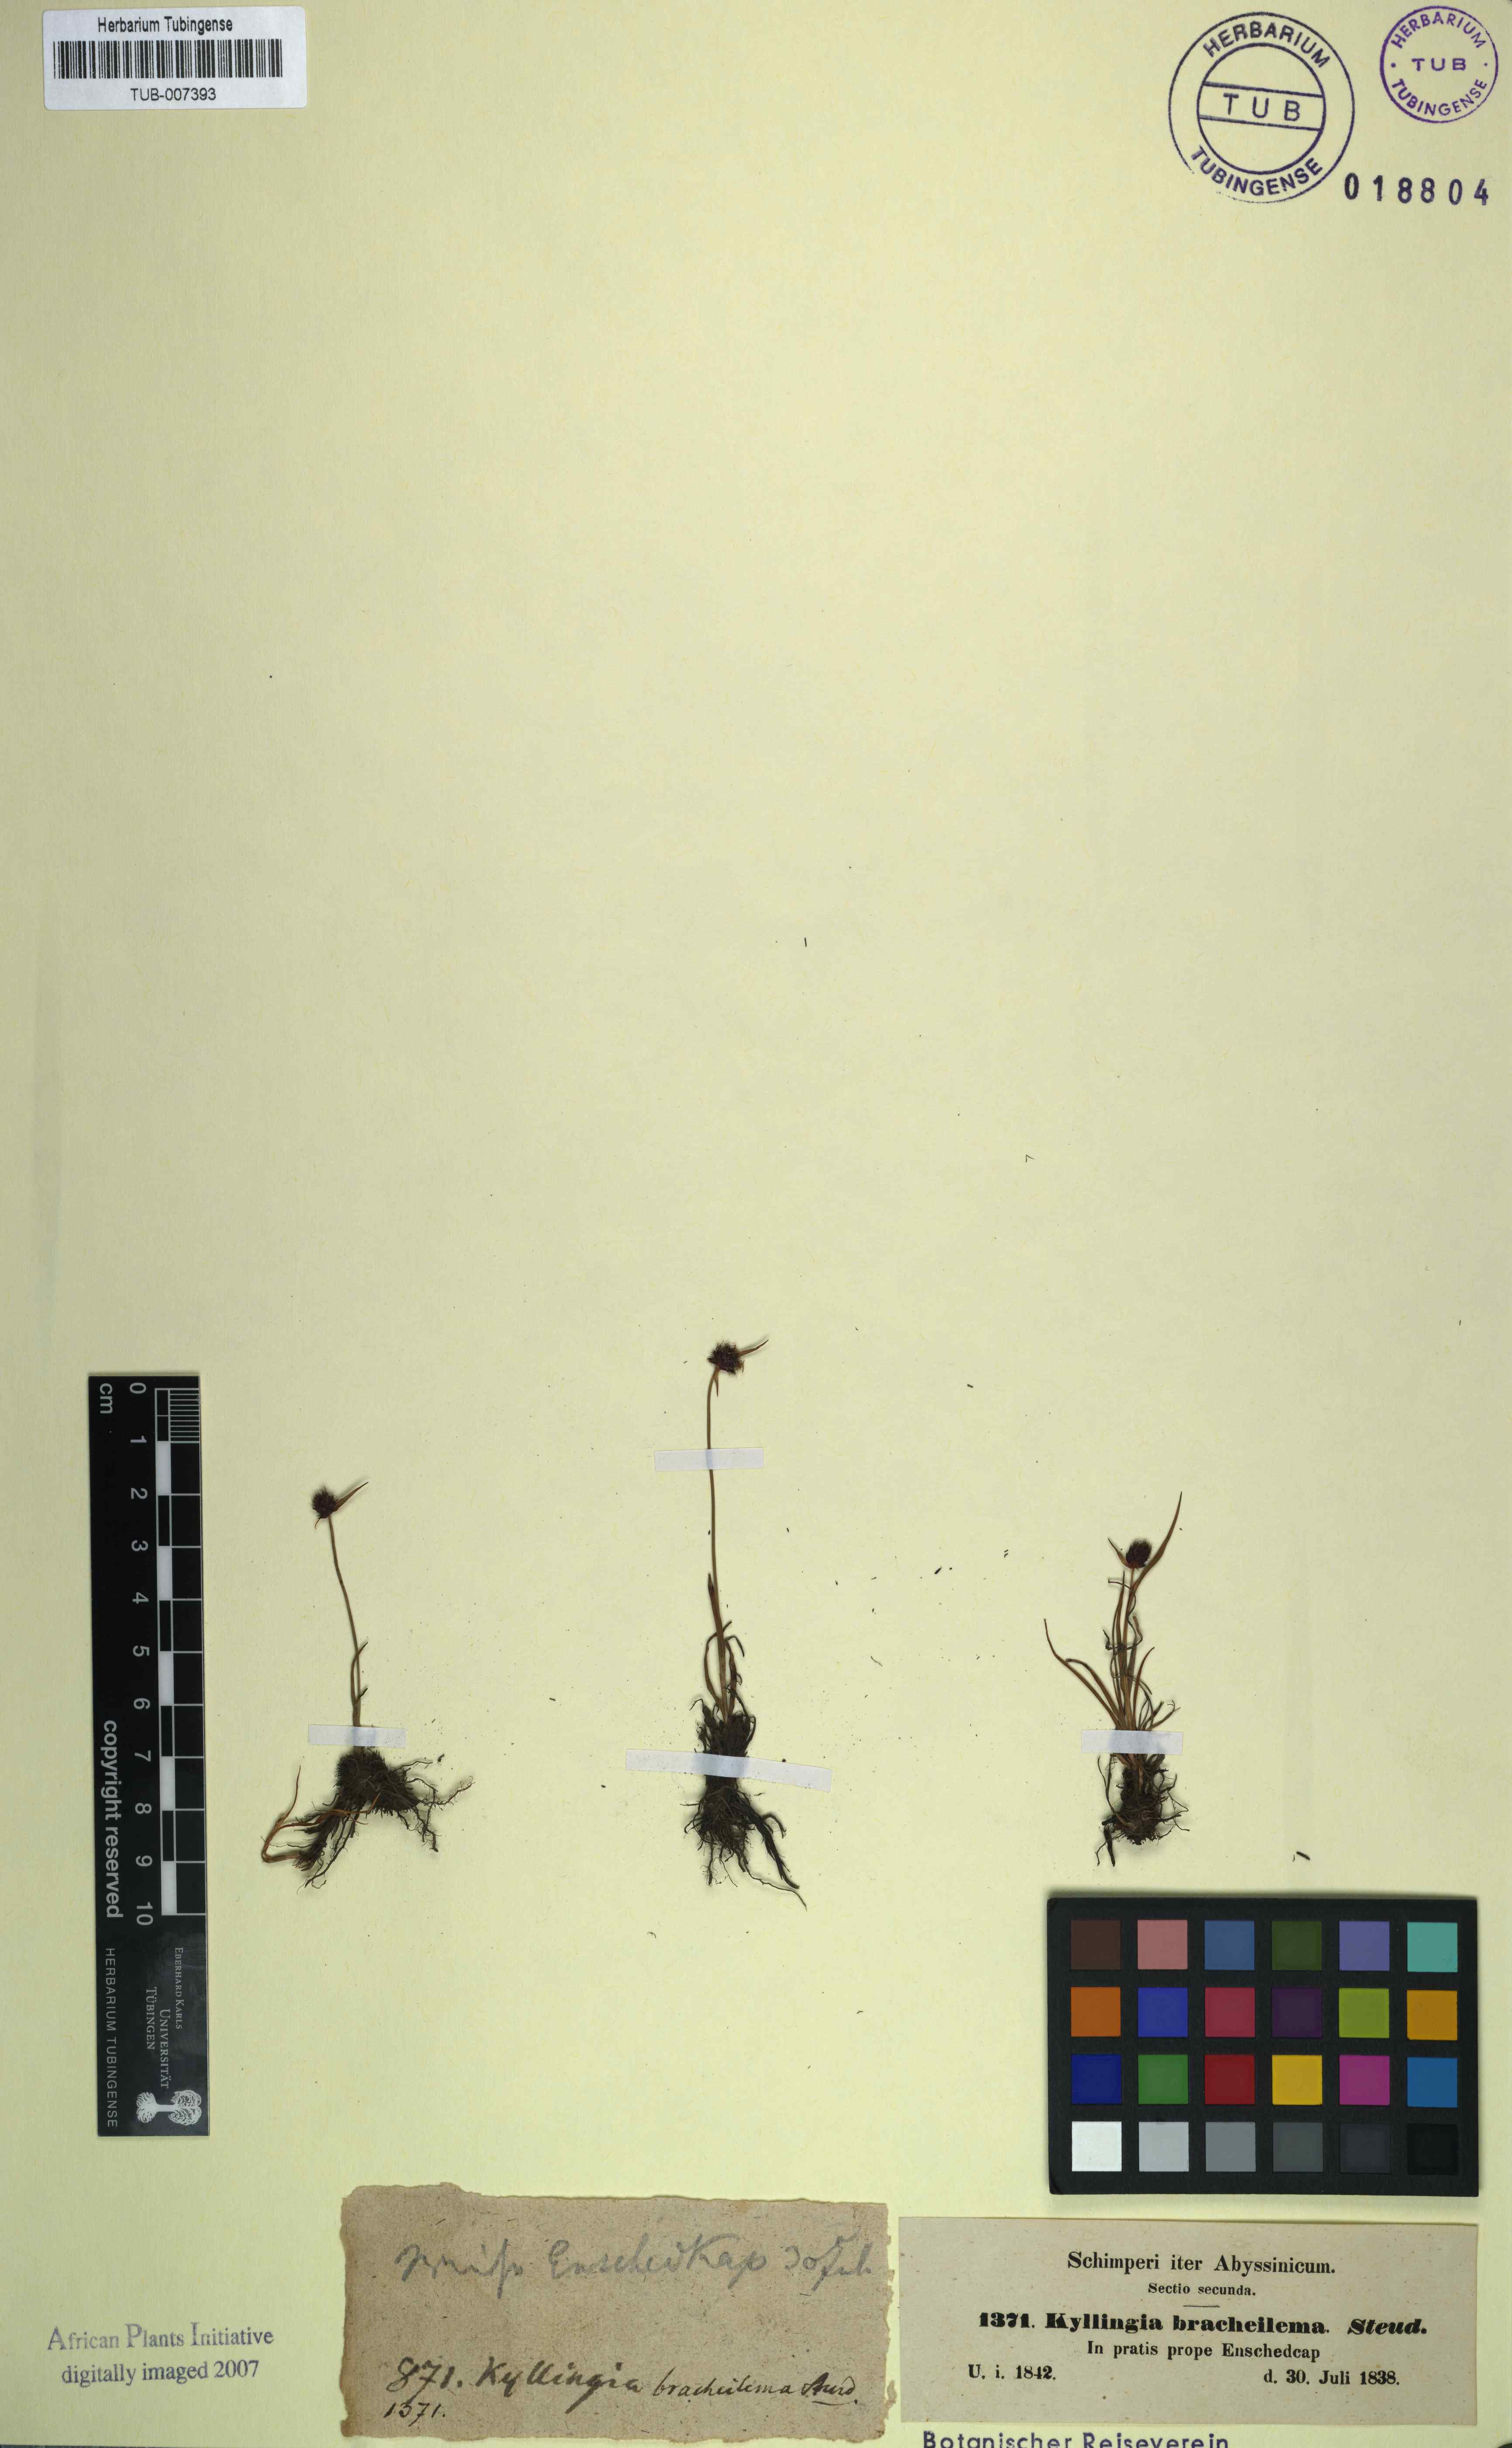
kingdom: Plantae
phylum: Tracheophyta
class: Liliopsida
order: Poales
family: Cyperaceae
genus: Cyperus
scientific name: Cyperus bracheilema
